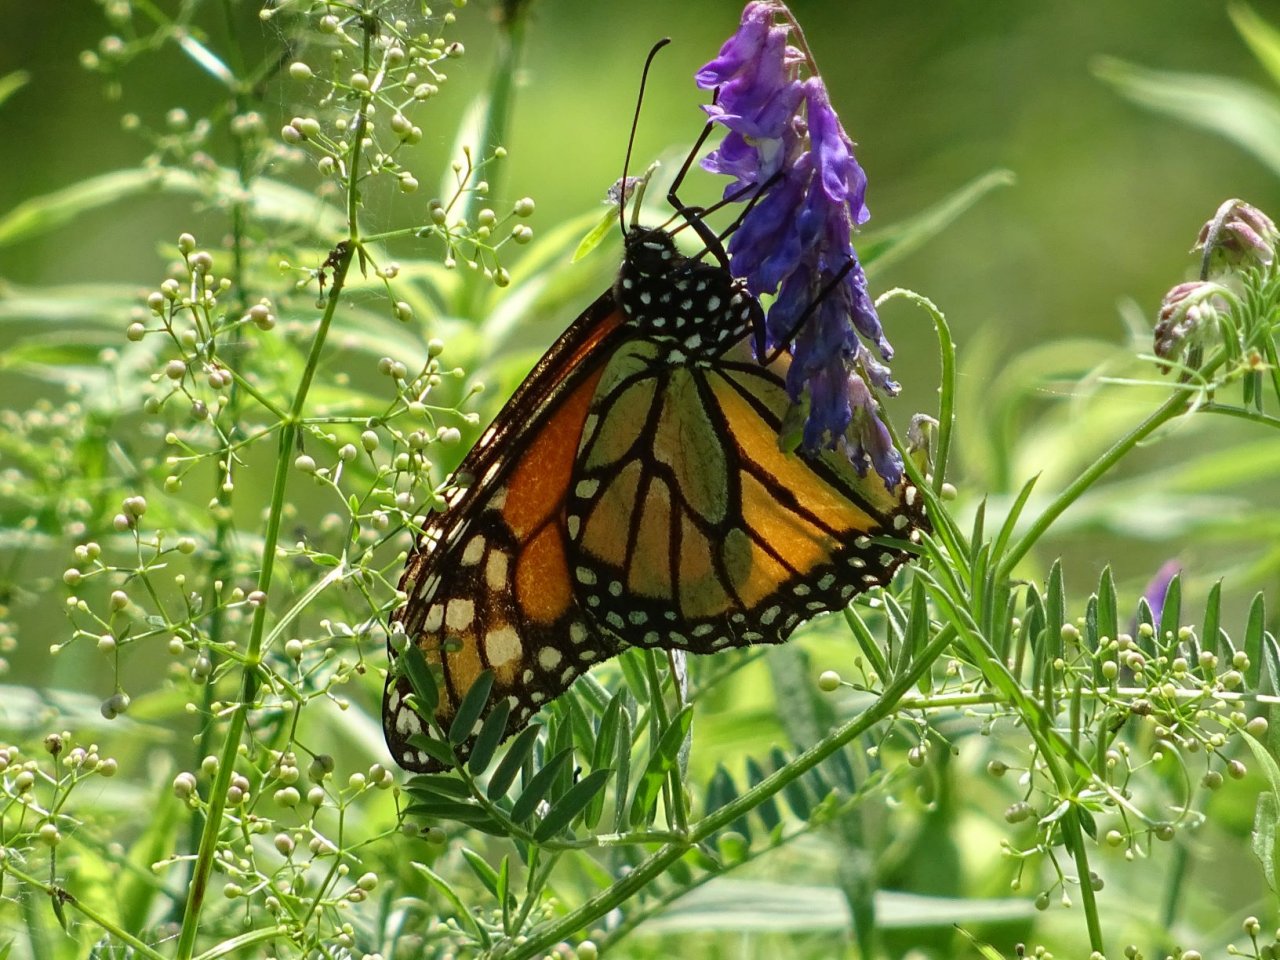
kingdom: Animalia
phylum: Arthropoda
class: Insecta
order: Lepidoptera
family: Nymphalidae
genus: Danaus
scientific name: Danaus plexippus
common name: Monarch
